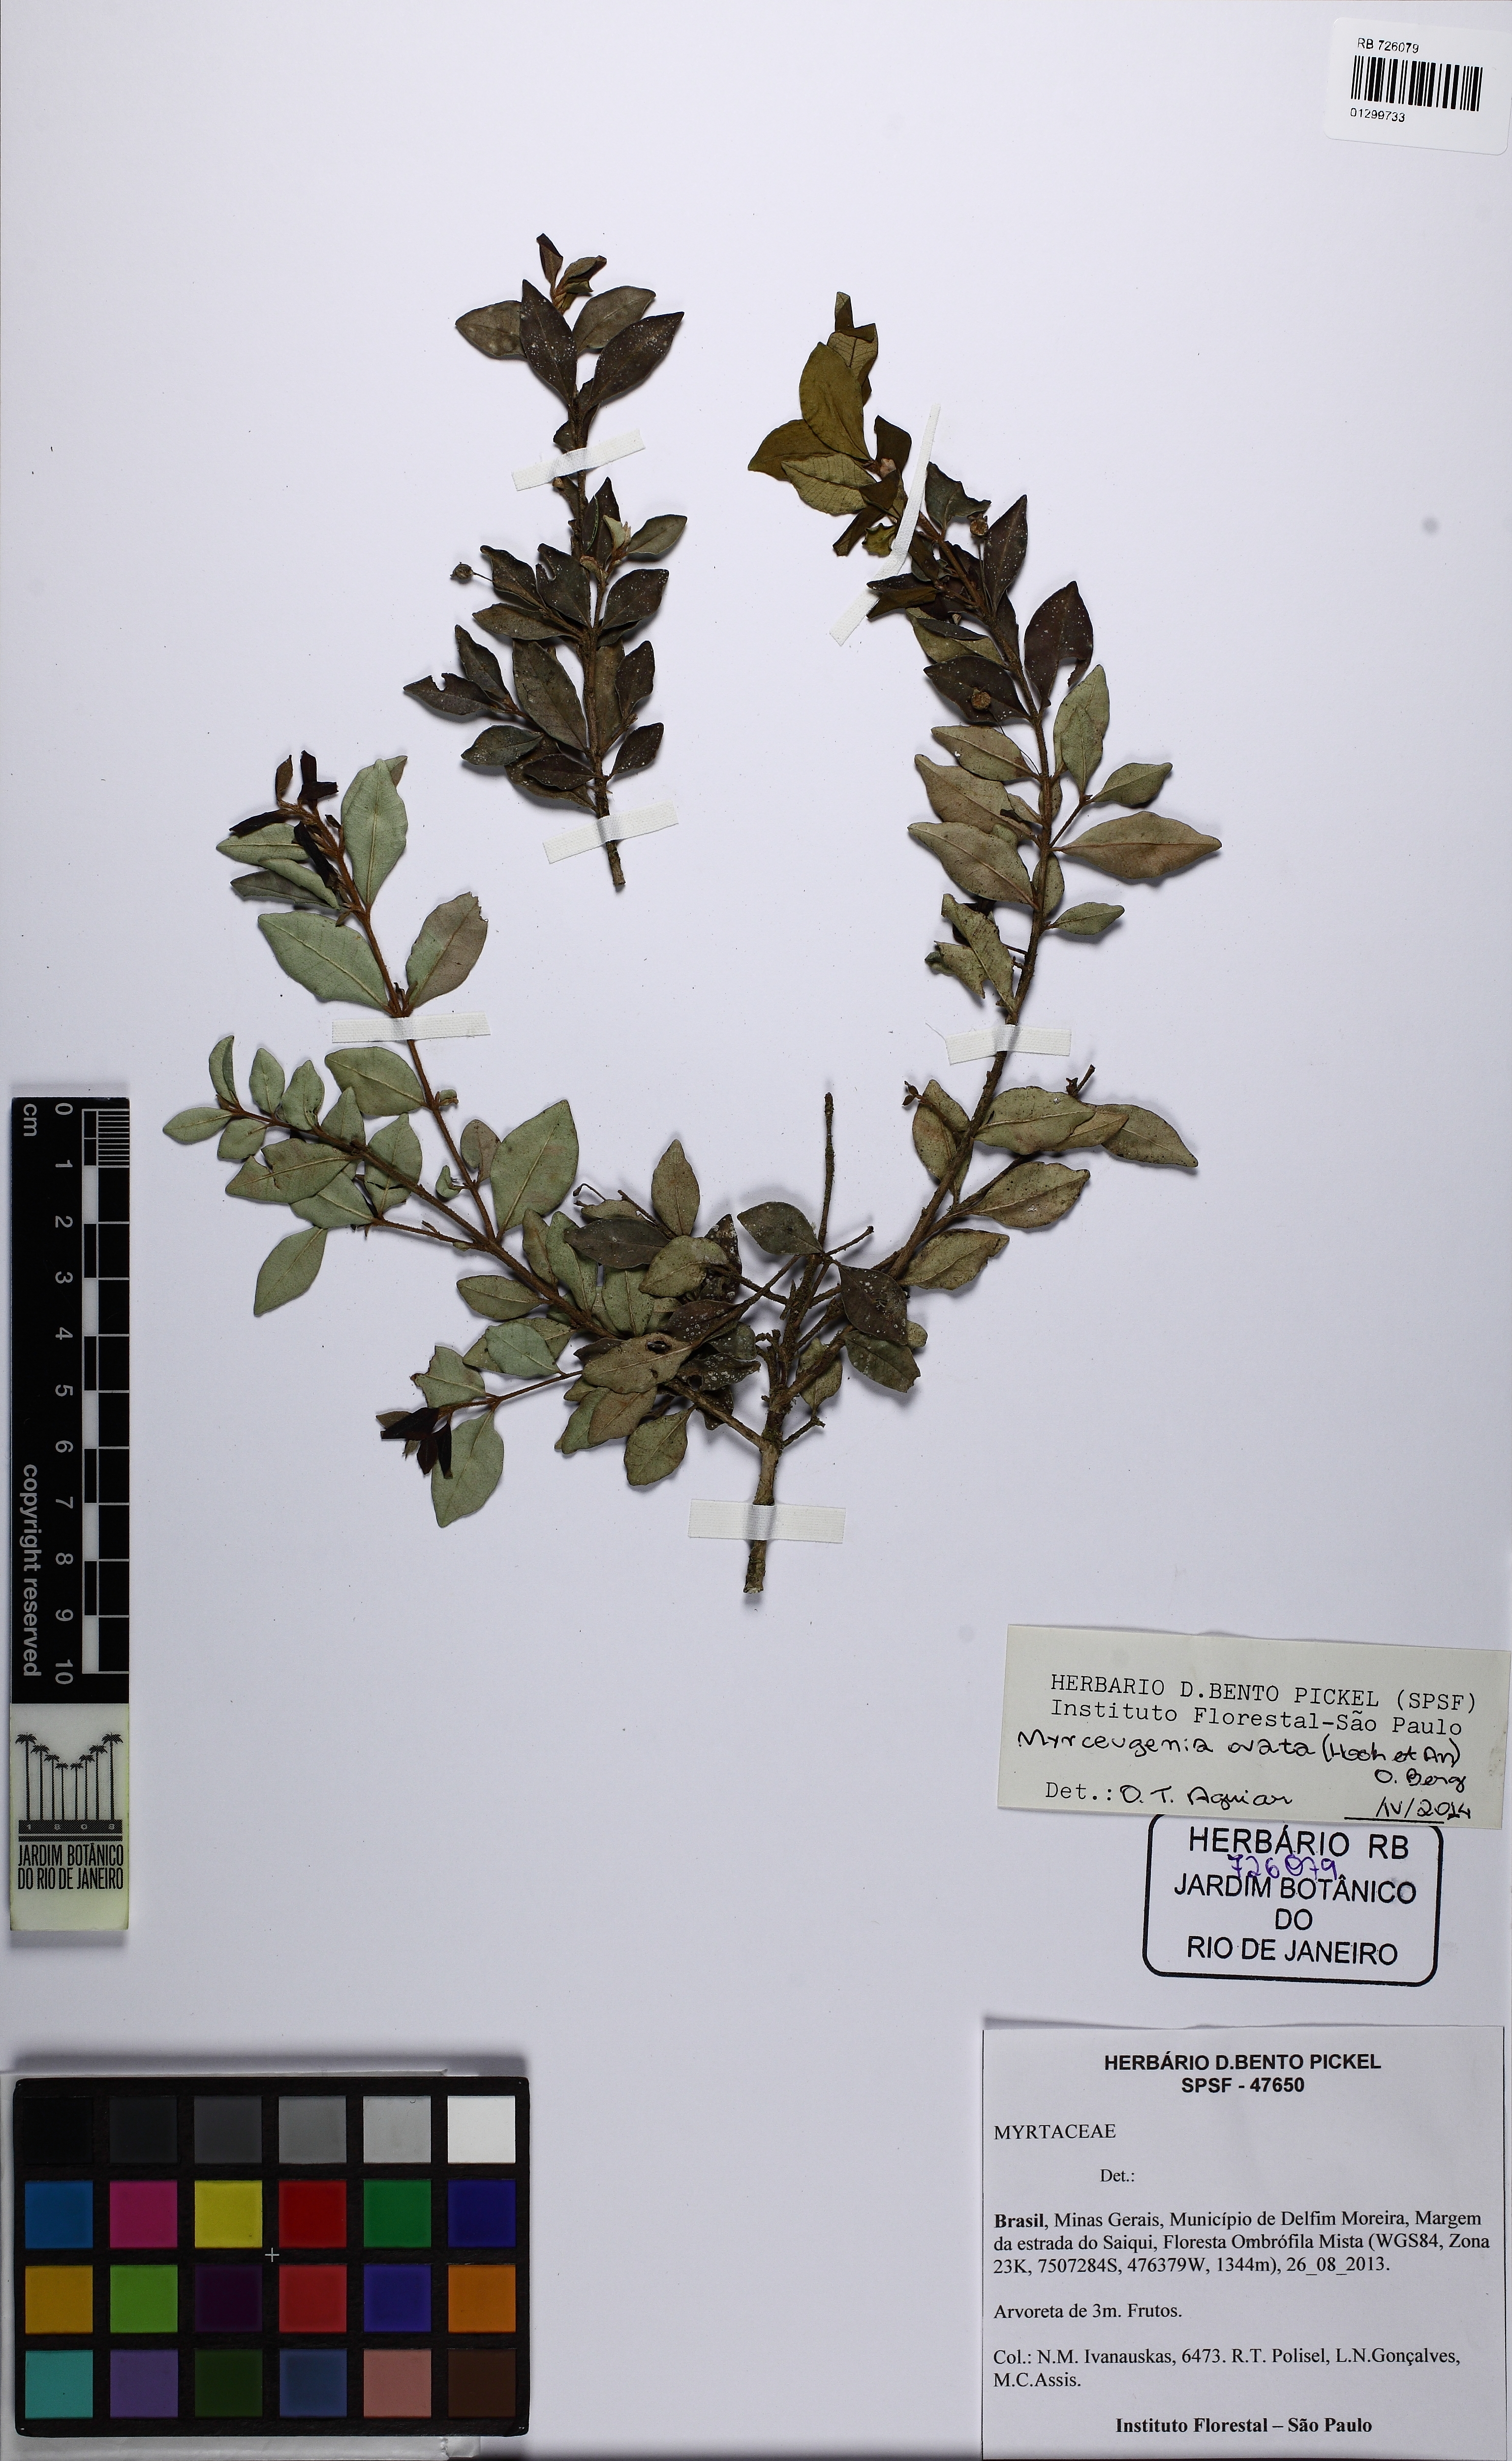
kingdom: Plantae
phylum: Tracheophyta
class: Magnoliopsida
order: Myrtales
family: Myrtaceae
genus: Myrceugenia
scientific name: Myrceugenia ovata
